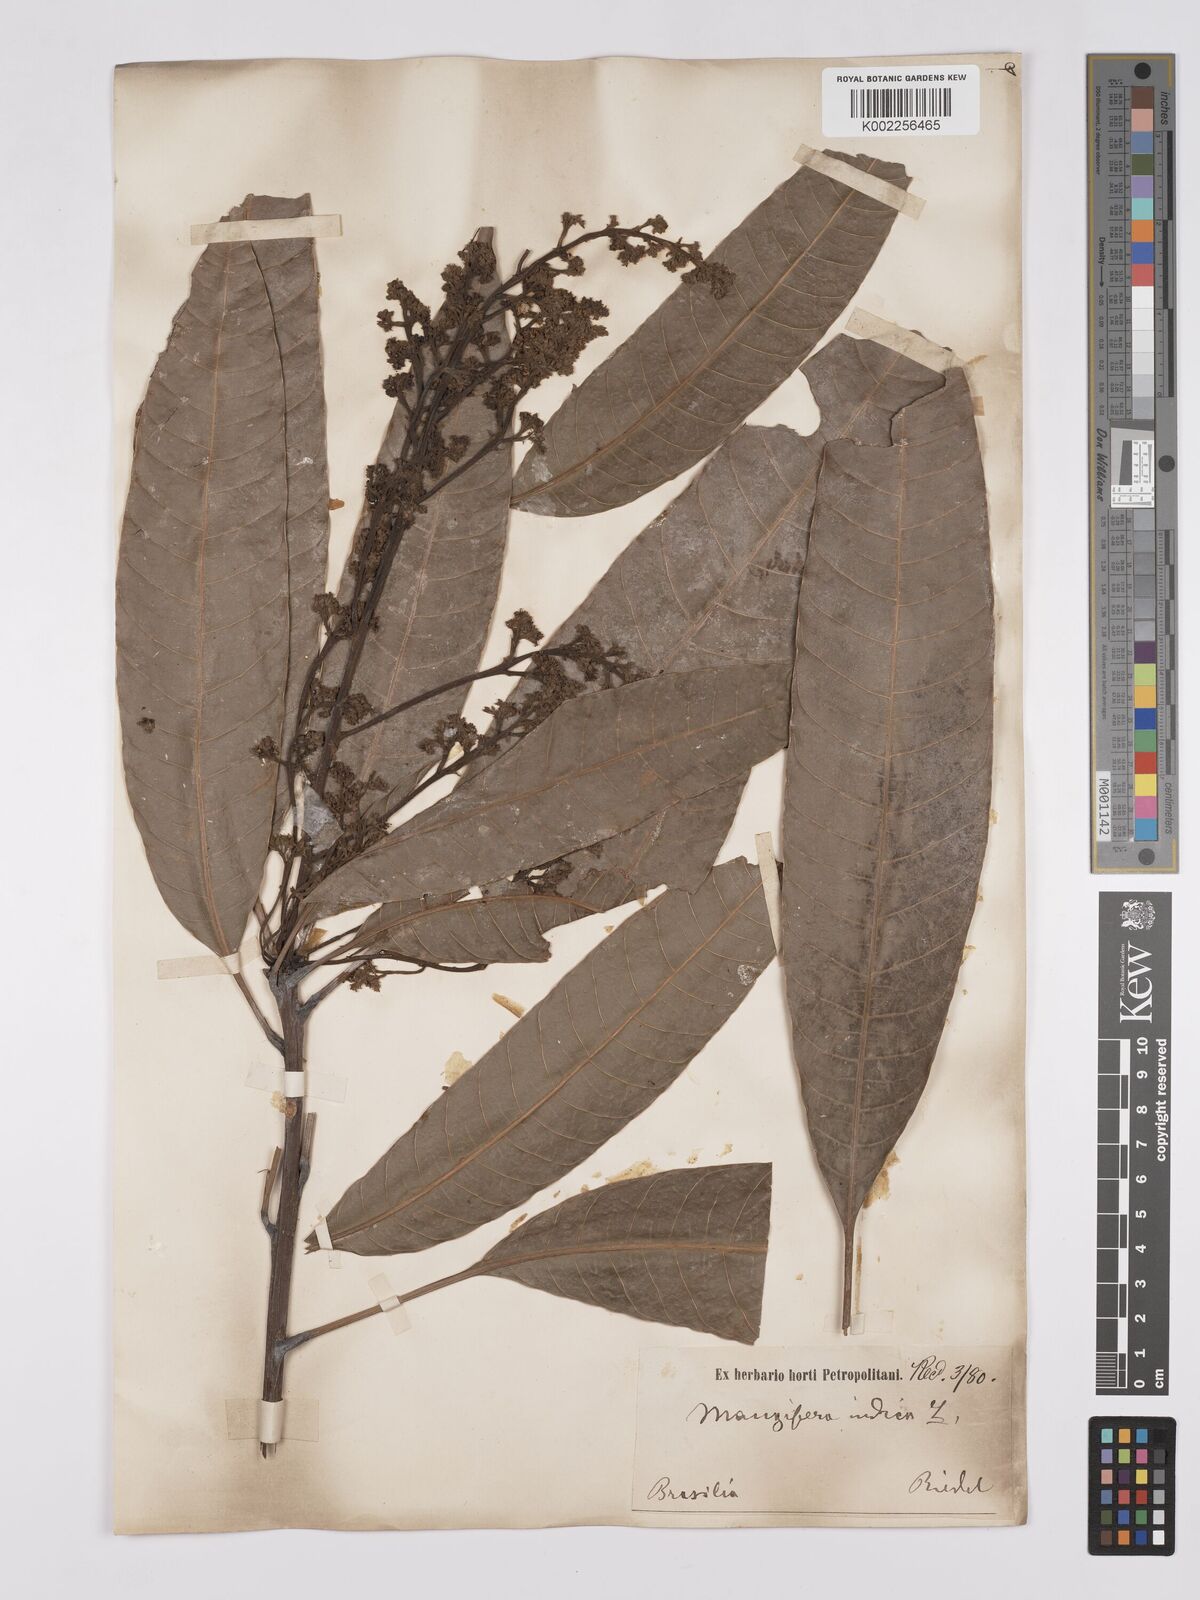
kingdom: Plantae
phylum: Tracheophyta
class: Magnoliopsida
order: Sapindales
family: Anacardiaceae
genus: Mangifera
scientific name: Mangifera indica
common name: Mango
